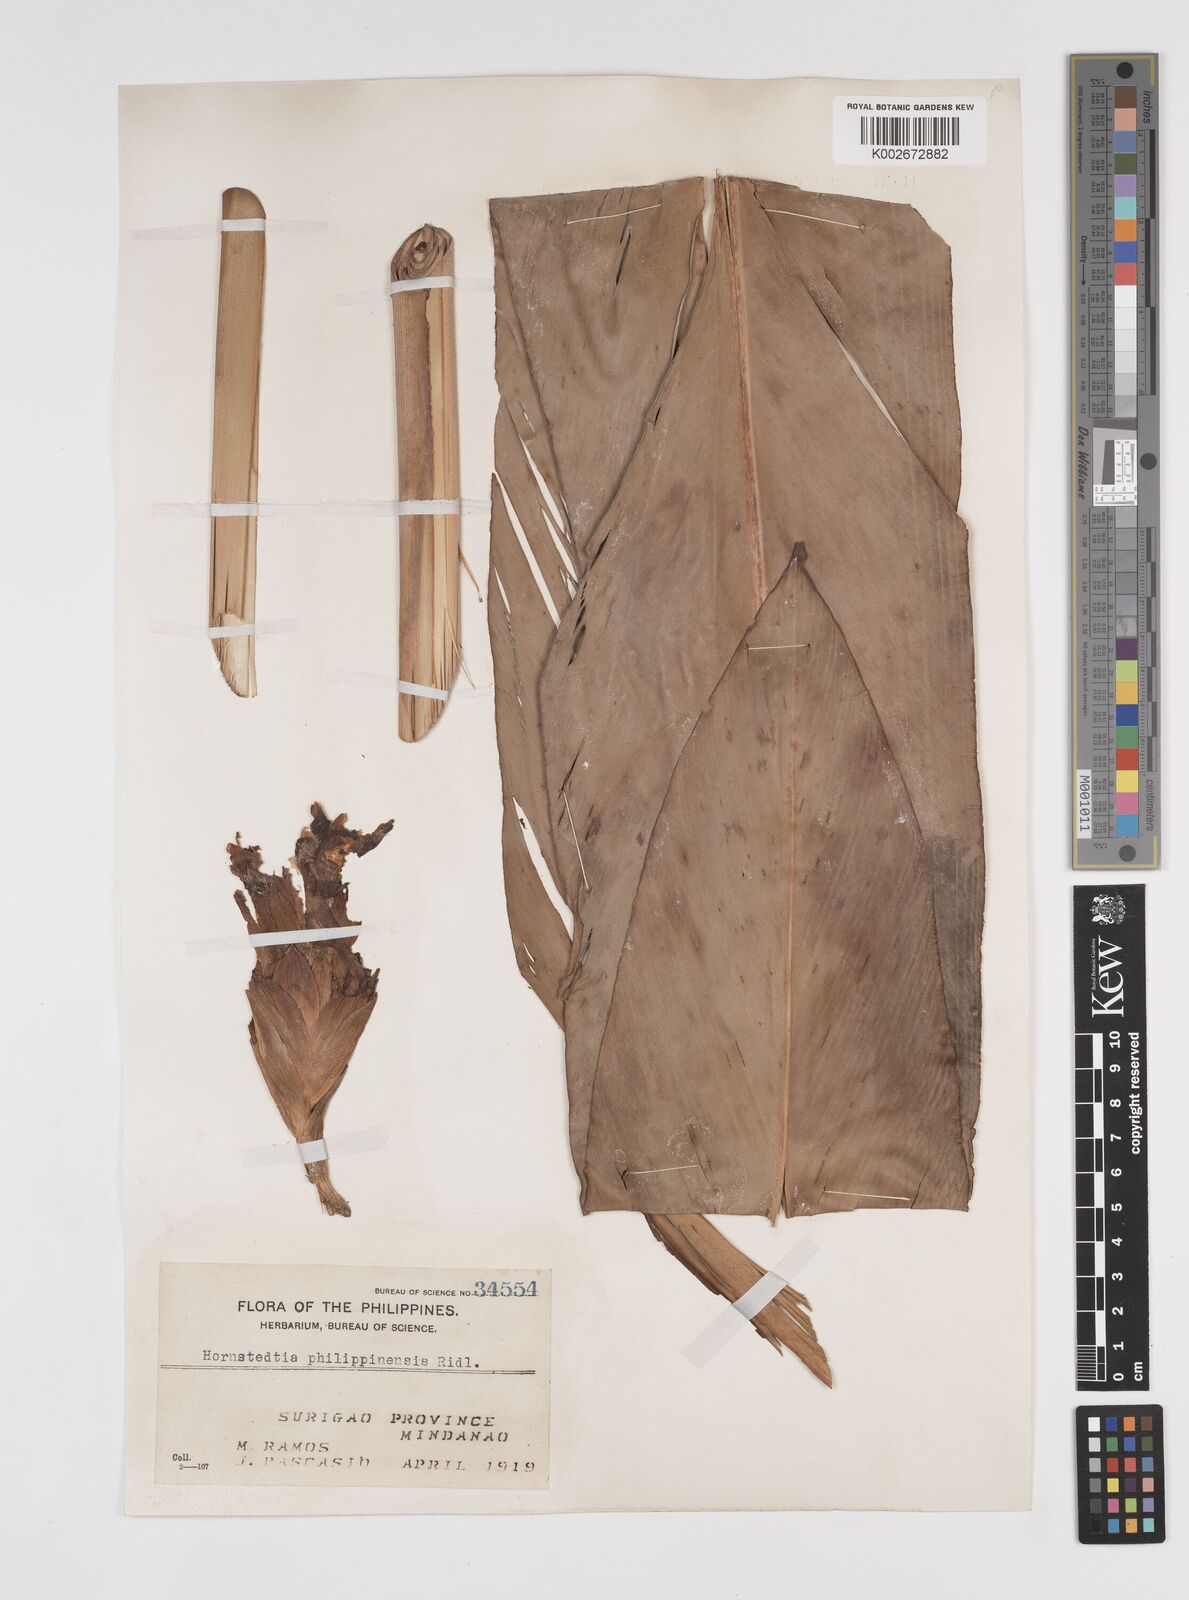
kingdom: Plantae
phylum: Tracheophyta
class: Liliopsida
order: Zingiberales
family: Zingiberaceae
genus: Etlingera
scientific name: Etlingera philippinensis
